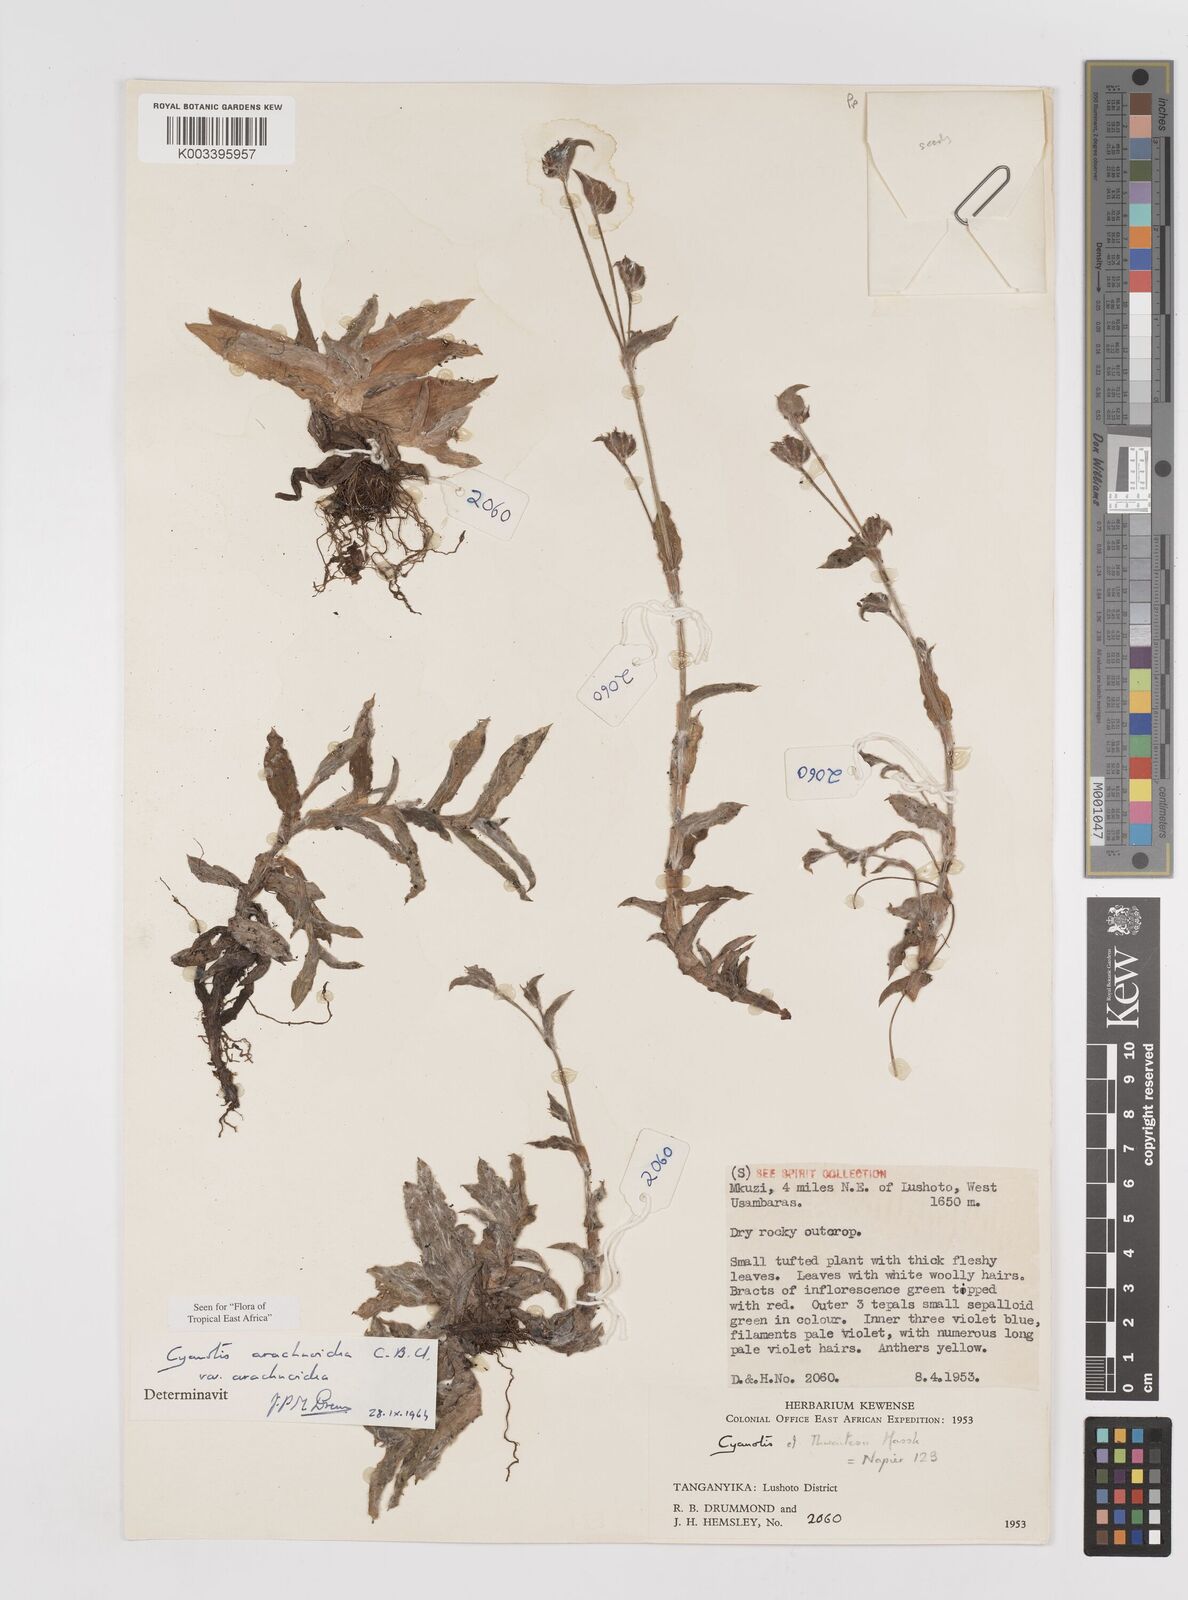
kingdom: Plantae
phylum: Tracheophyta
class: Liliopsida
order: Commelinales
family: Commelinaceae
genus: Cyanotis
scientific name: Cyanotis arachnoidea
